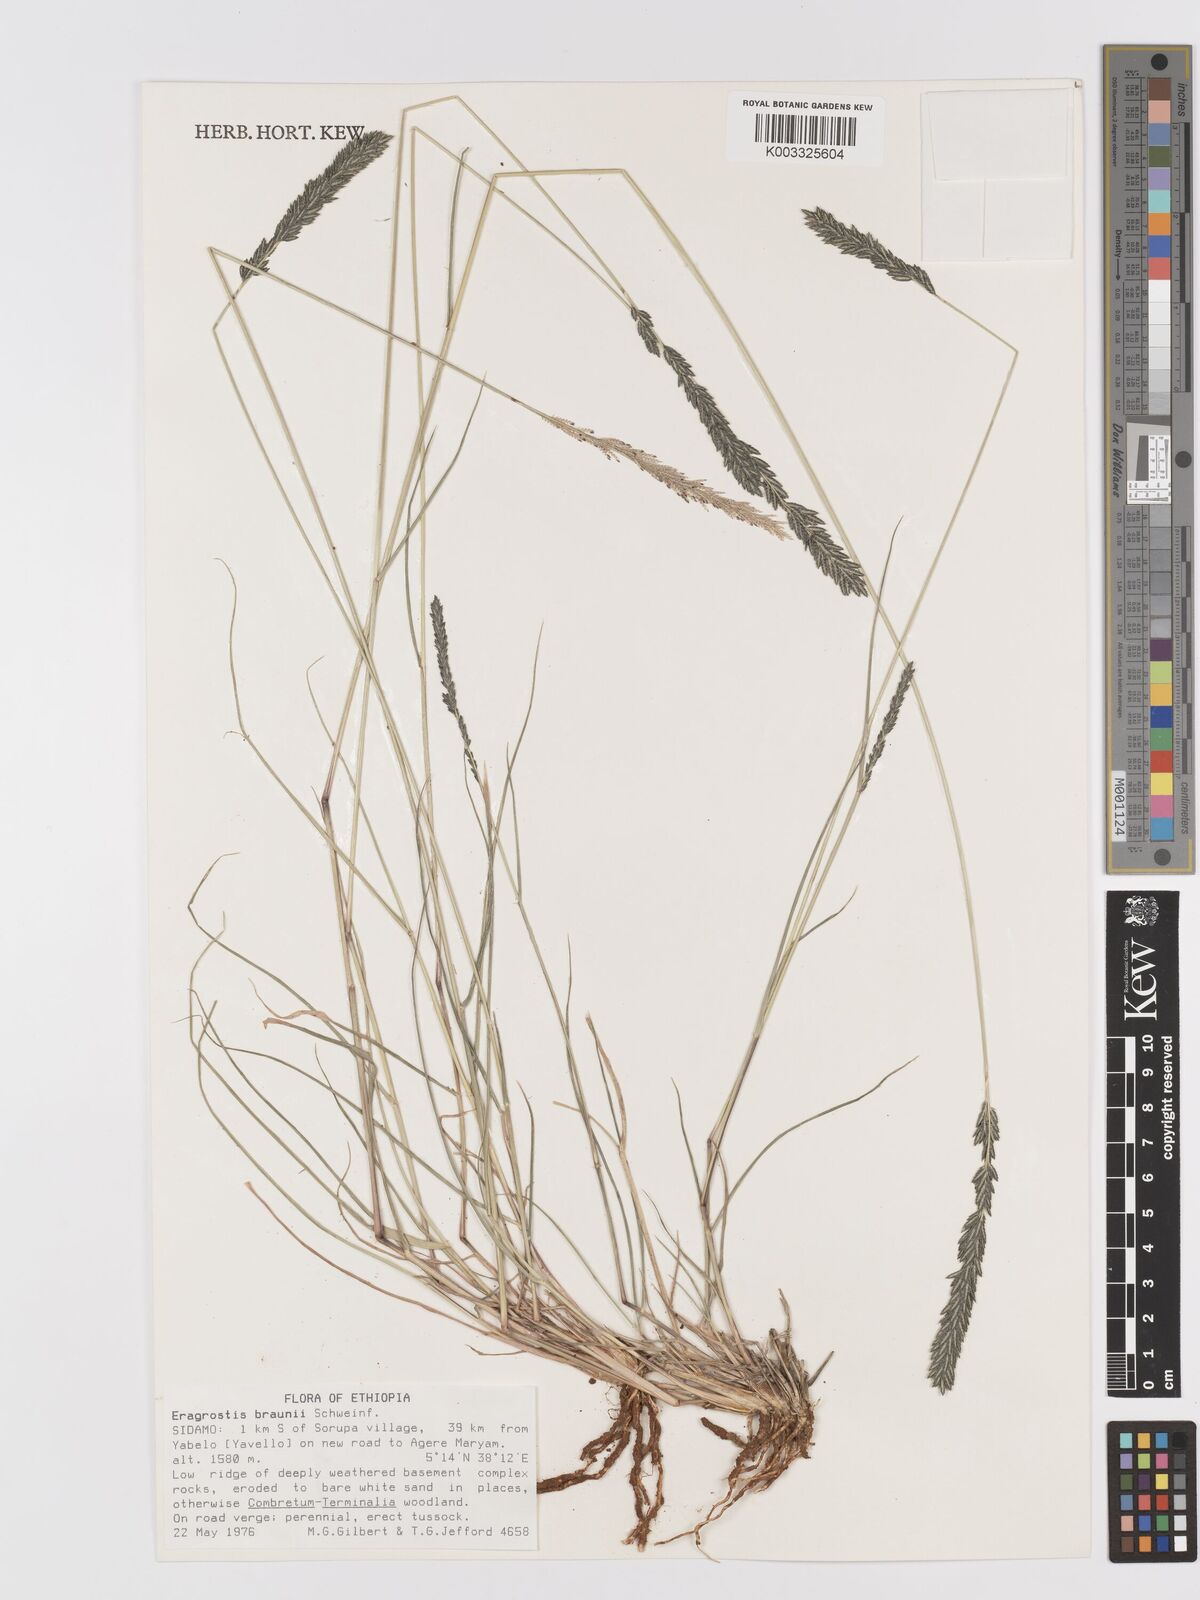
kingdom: Plantae
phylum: Tracheophyta
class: Liliopsida
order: Poales
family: Poaceae
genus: Eragrostis
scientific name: Eragrostis braunii
